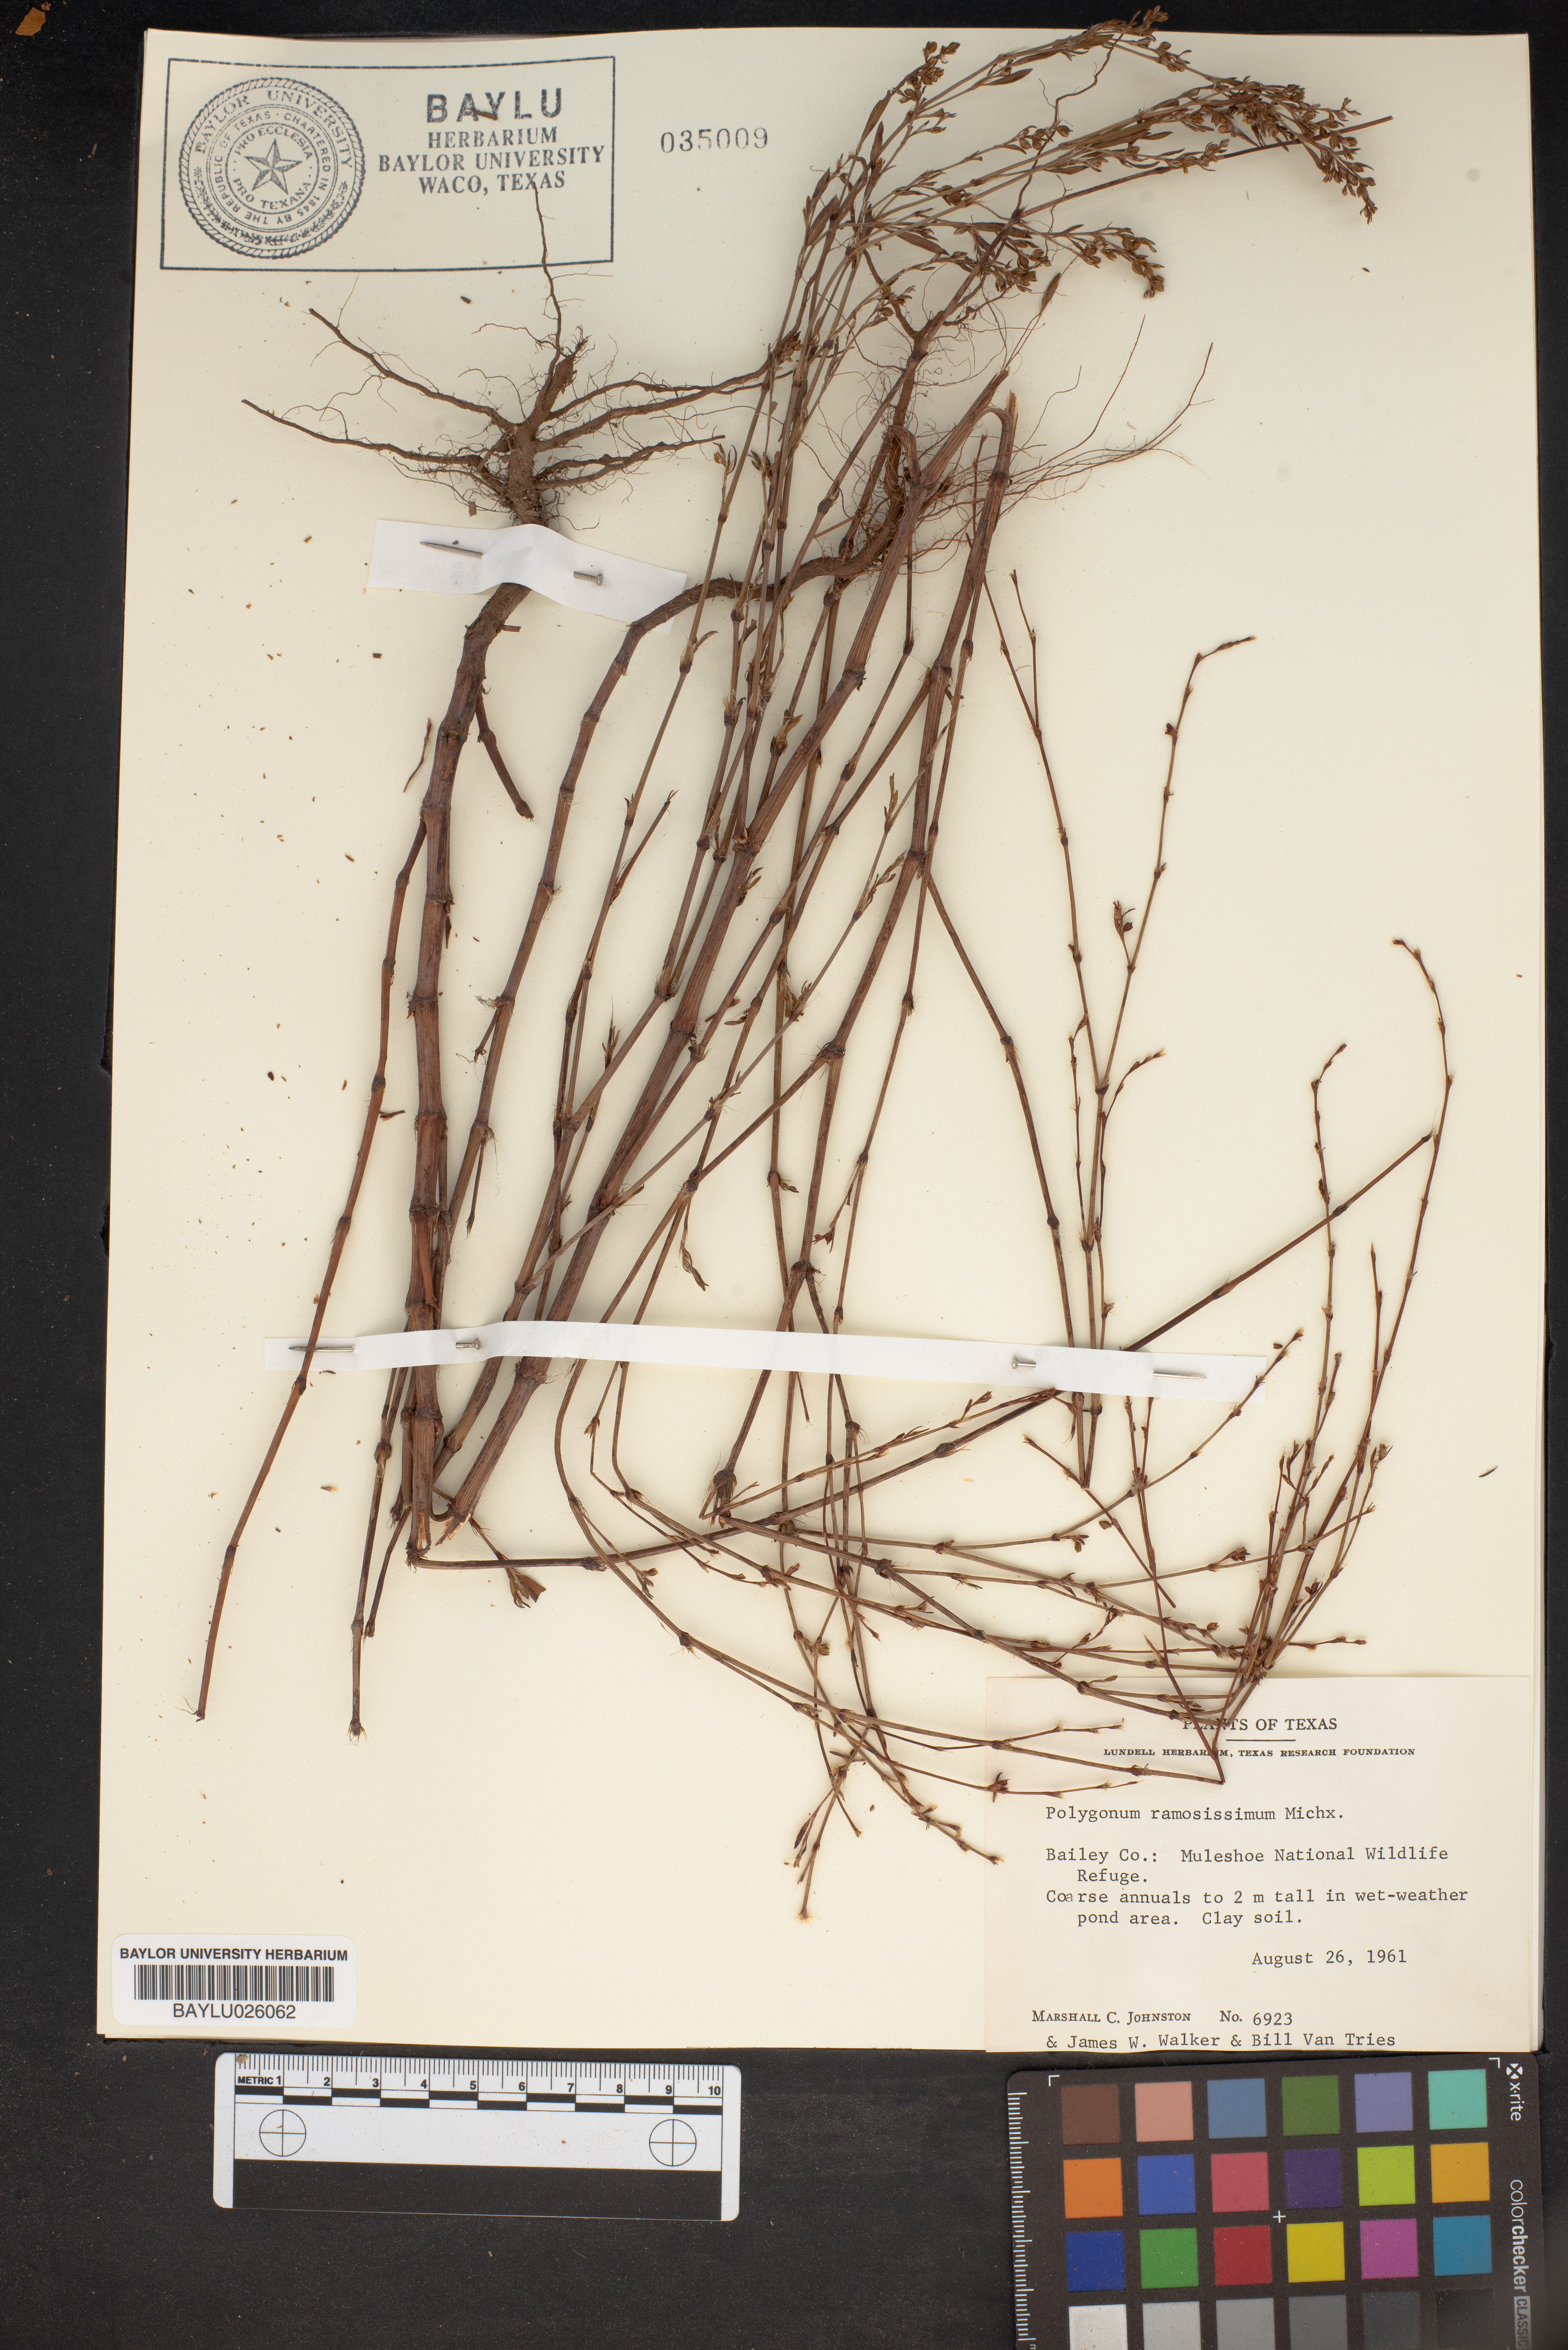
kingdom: Plantae
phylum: Tracheophyta
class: Magnoliopsida
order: Caryophyllales
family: Polygonaceae
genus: Polygonum
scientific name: Polygonum ramosissimum
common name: Bushy knotweed
